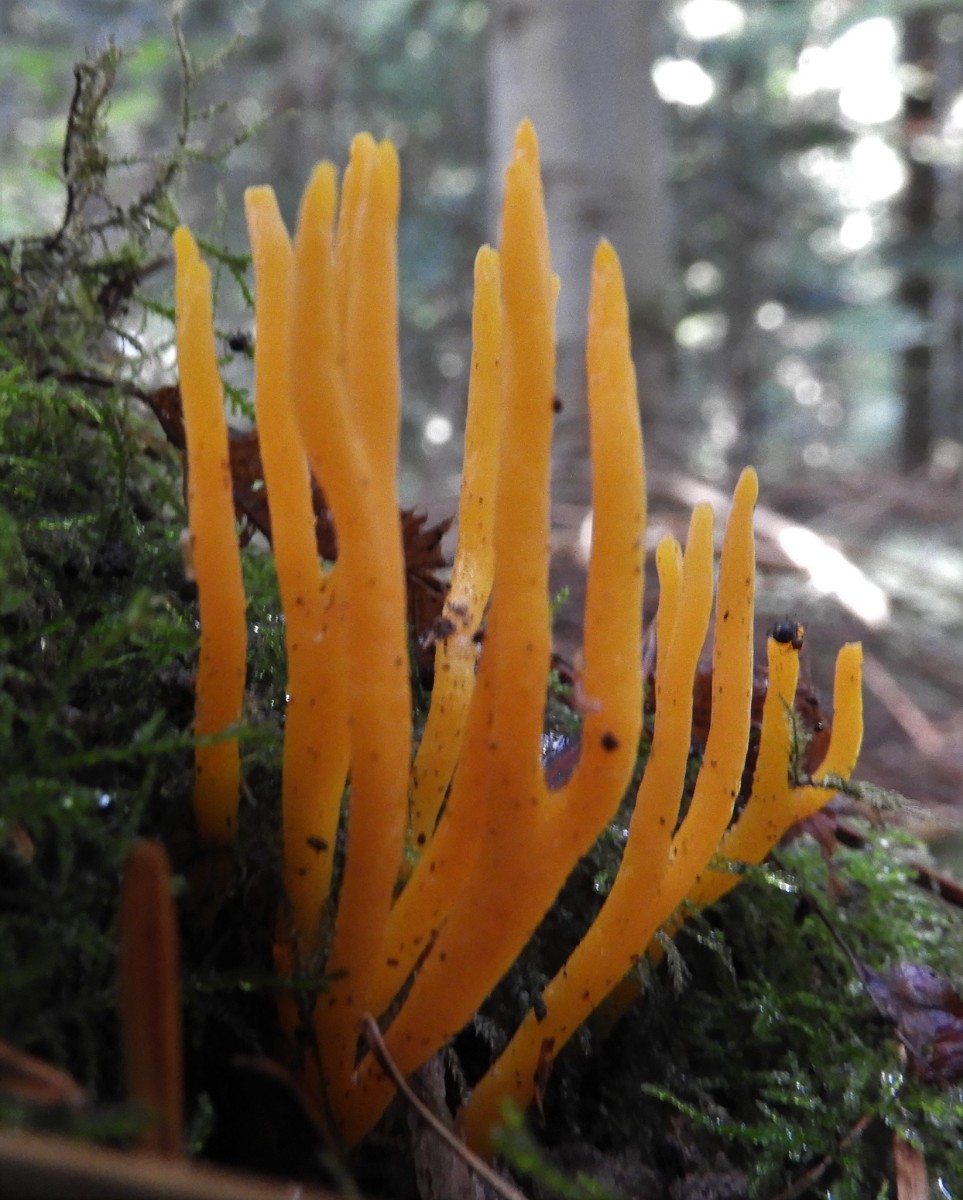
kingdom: Fungi
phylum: Basidiomycota
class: Dacrymycetes
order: Dacrymycetales
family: Dacrymycetaceae
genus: Calocera
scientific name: Calocera viscosa
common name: almindelig guldgaffel
